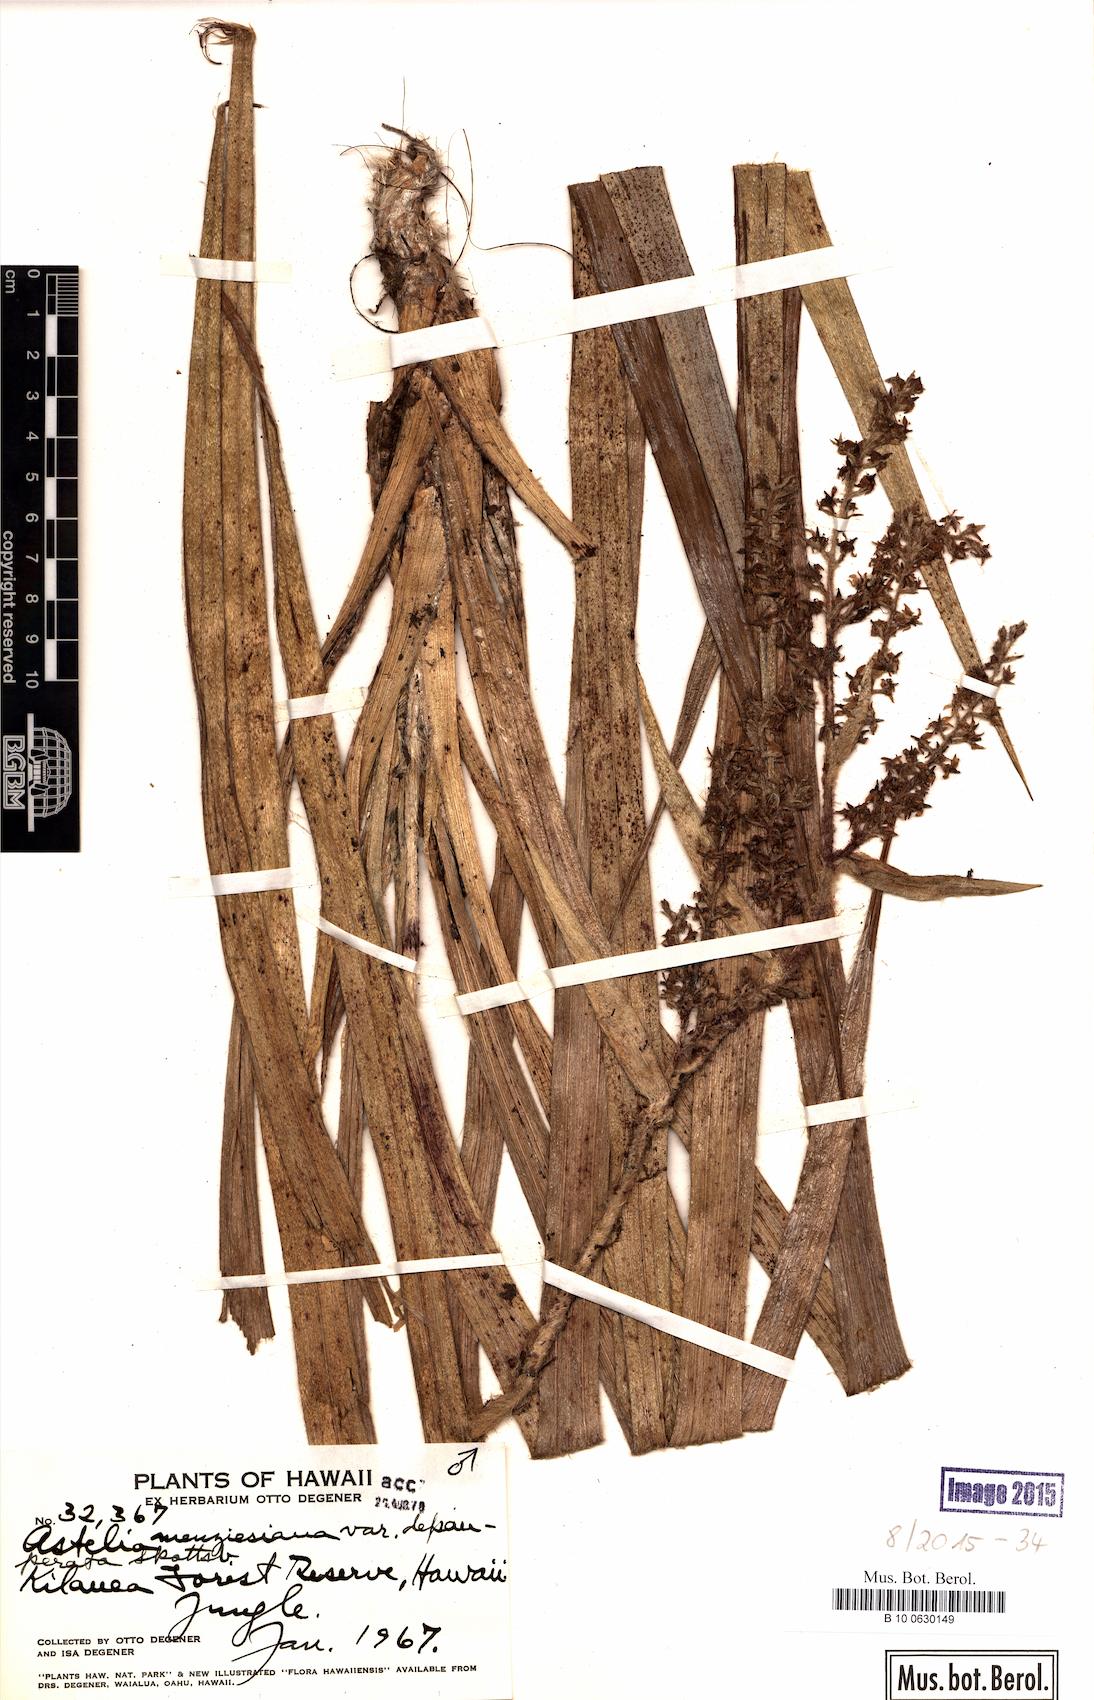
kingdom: Plantae
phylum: Tracheophyta
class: Liliopsida
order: Asparagales
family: Asteliaceae
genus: Astelia
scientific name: Astelia menziesiana
